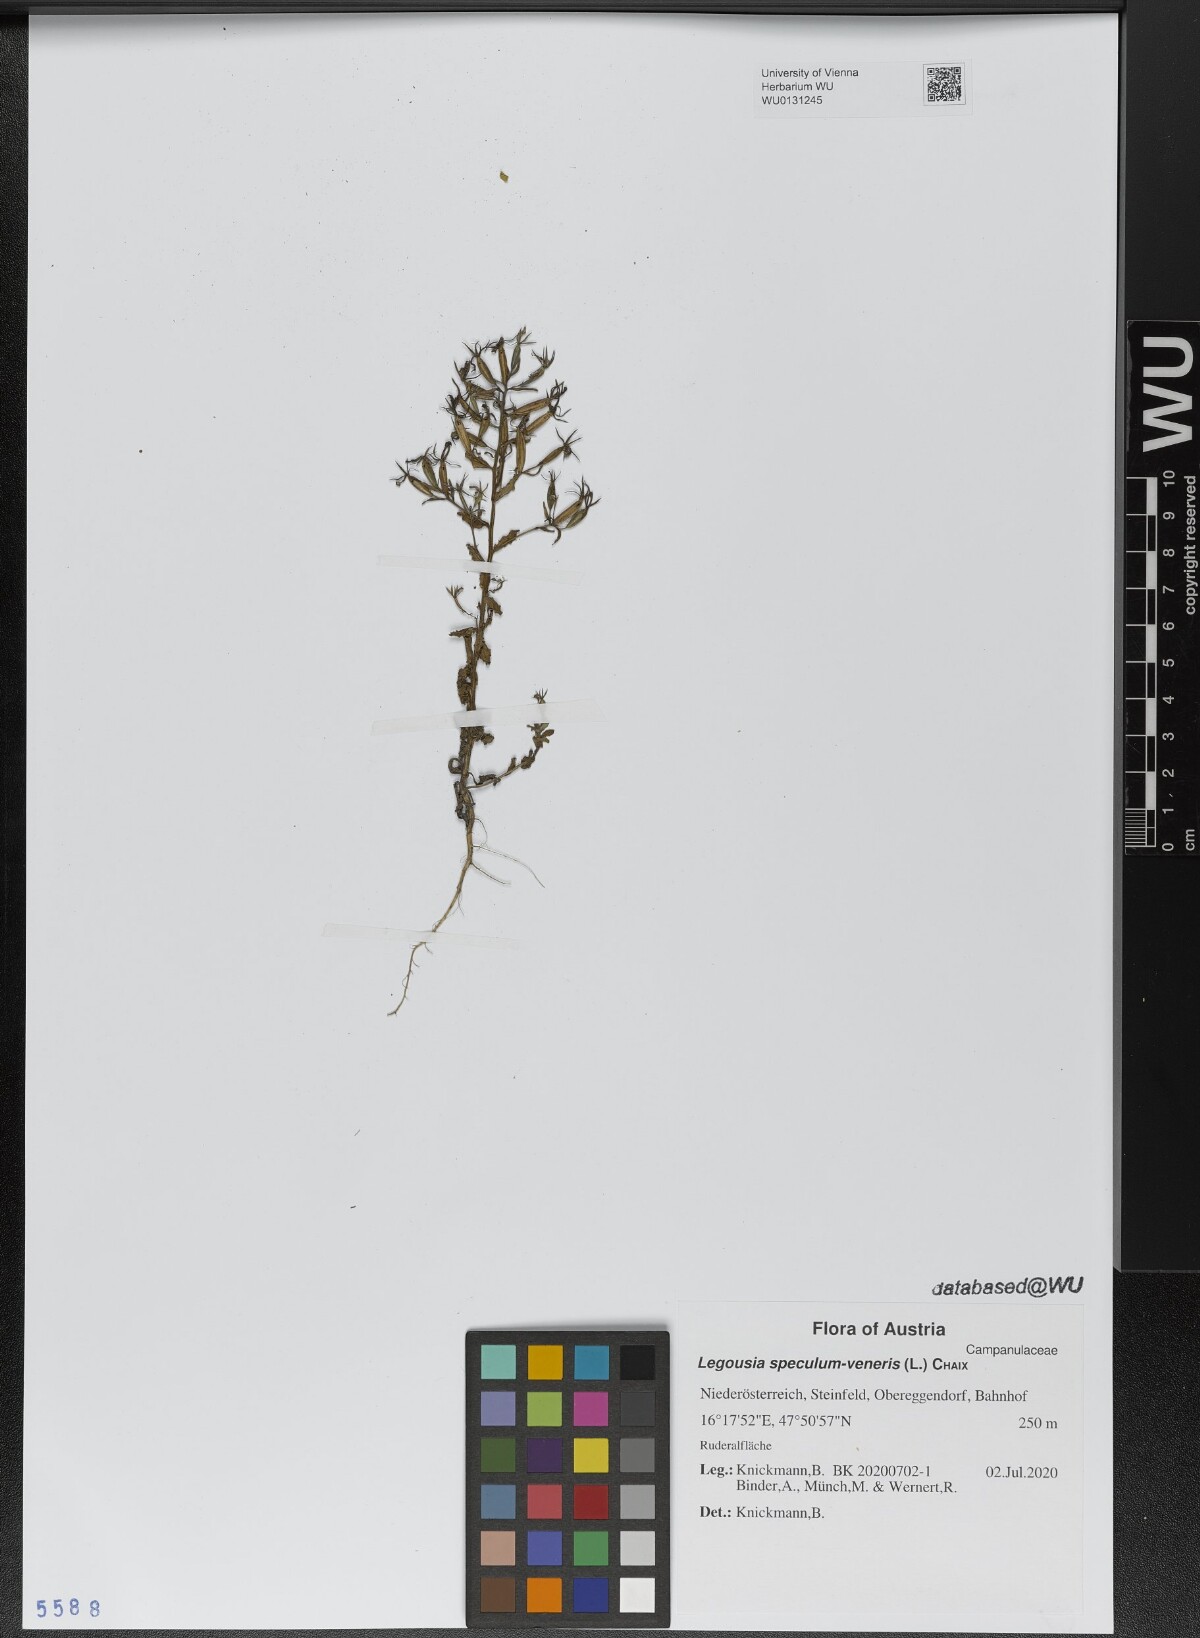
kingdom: Plantae
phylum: Tracheophyta
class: Magnoliopsida
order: Asterales
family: Campanulaceae
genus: Legousia
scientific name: Legousia speculum-veneris
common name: Large venus's-looking-glass
